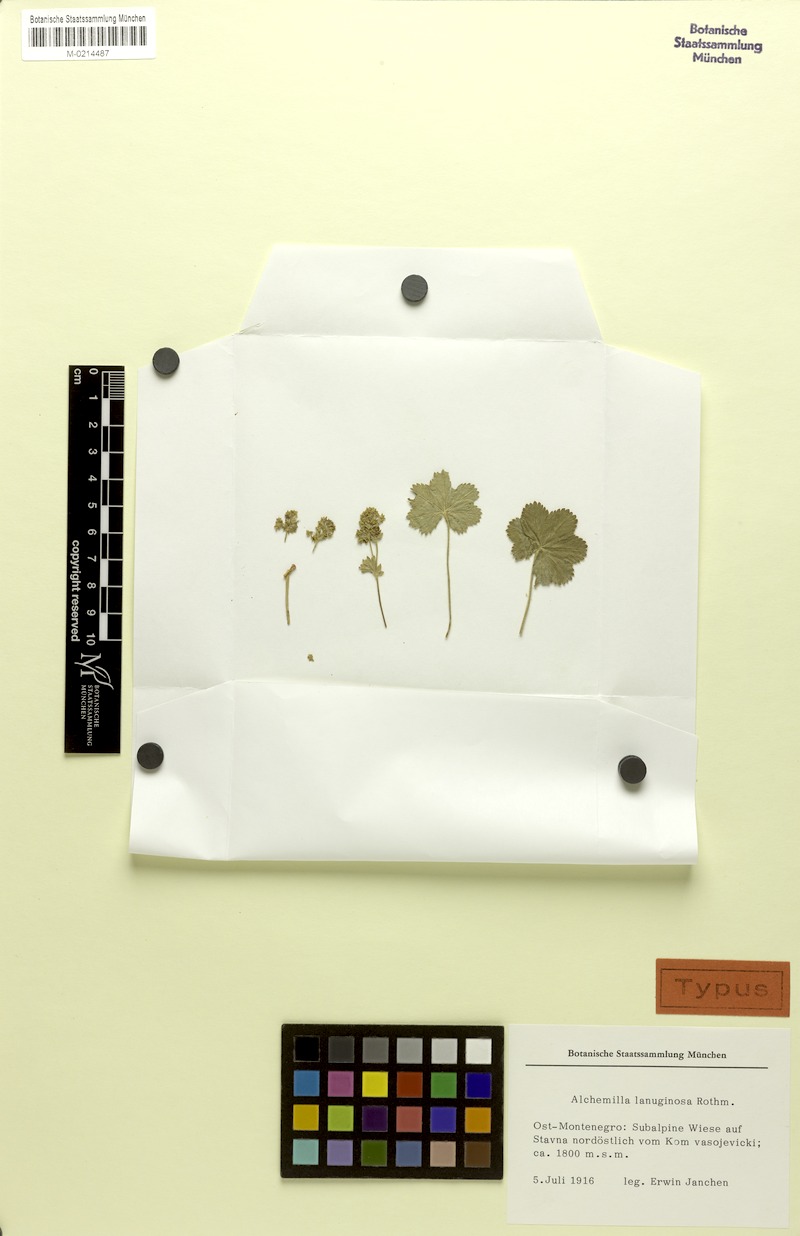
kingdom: Plantae
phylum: Tracheophyta
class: Magnoliopsida
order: Rosales
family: Rosaceae
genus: Alchemilla
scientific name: Alchemilla lanuginosa
